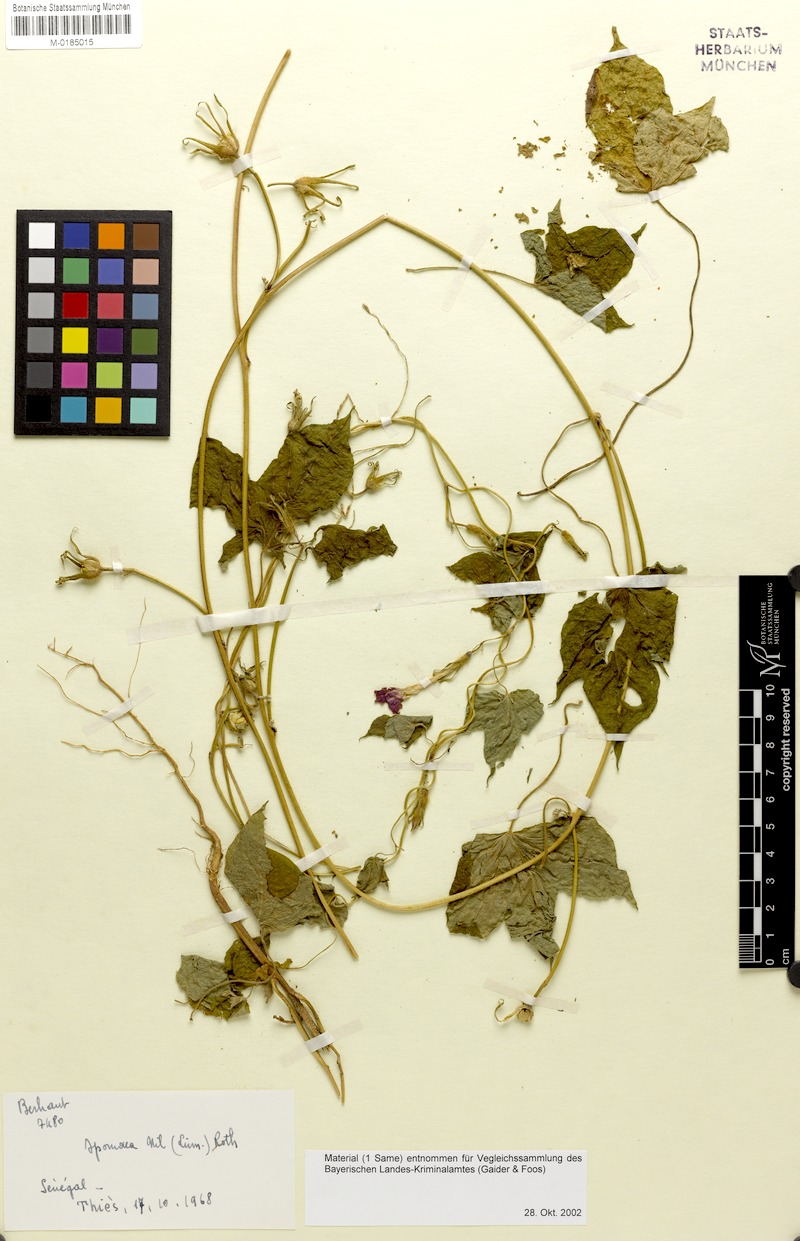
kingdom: Plantae
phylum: Tracheophyta
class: Magnoliopsida
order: Solanales
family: Convolvulaceae
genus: Ipomoea
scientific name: Ipomoea nil
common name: Japanese morning-glory
